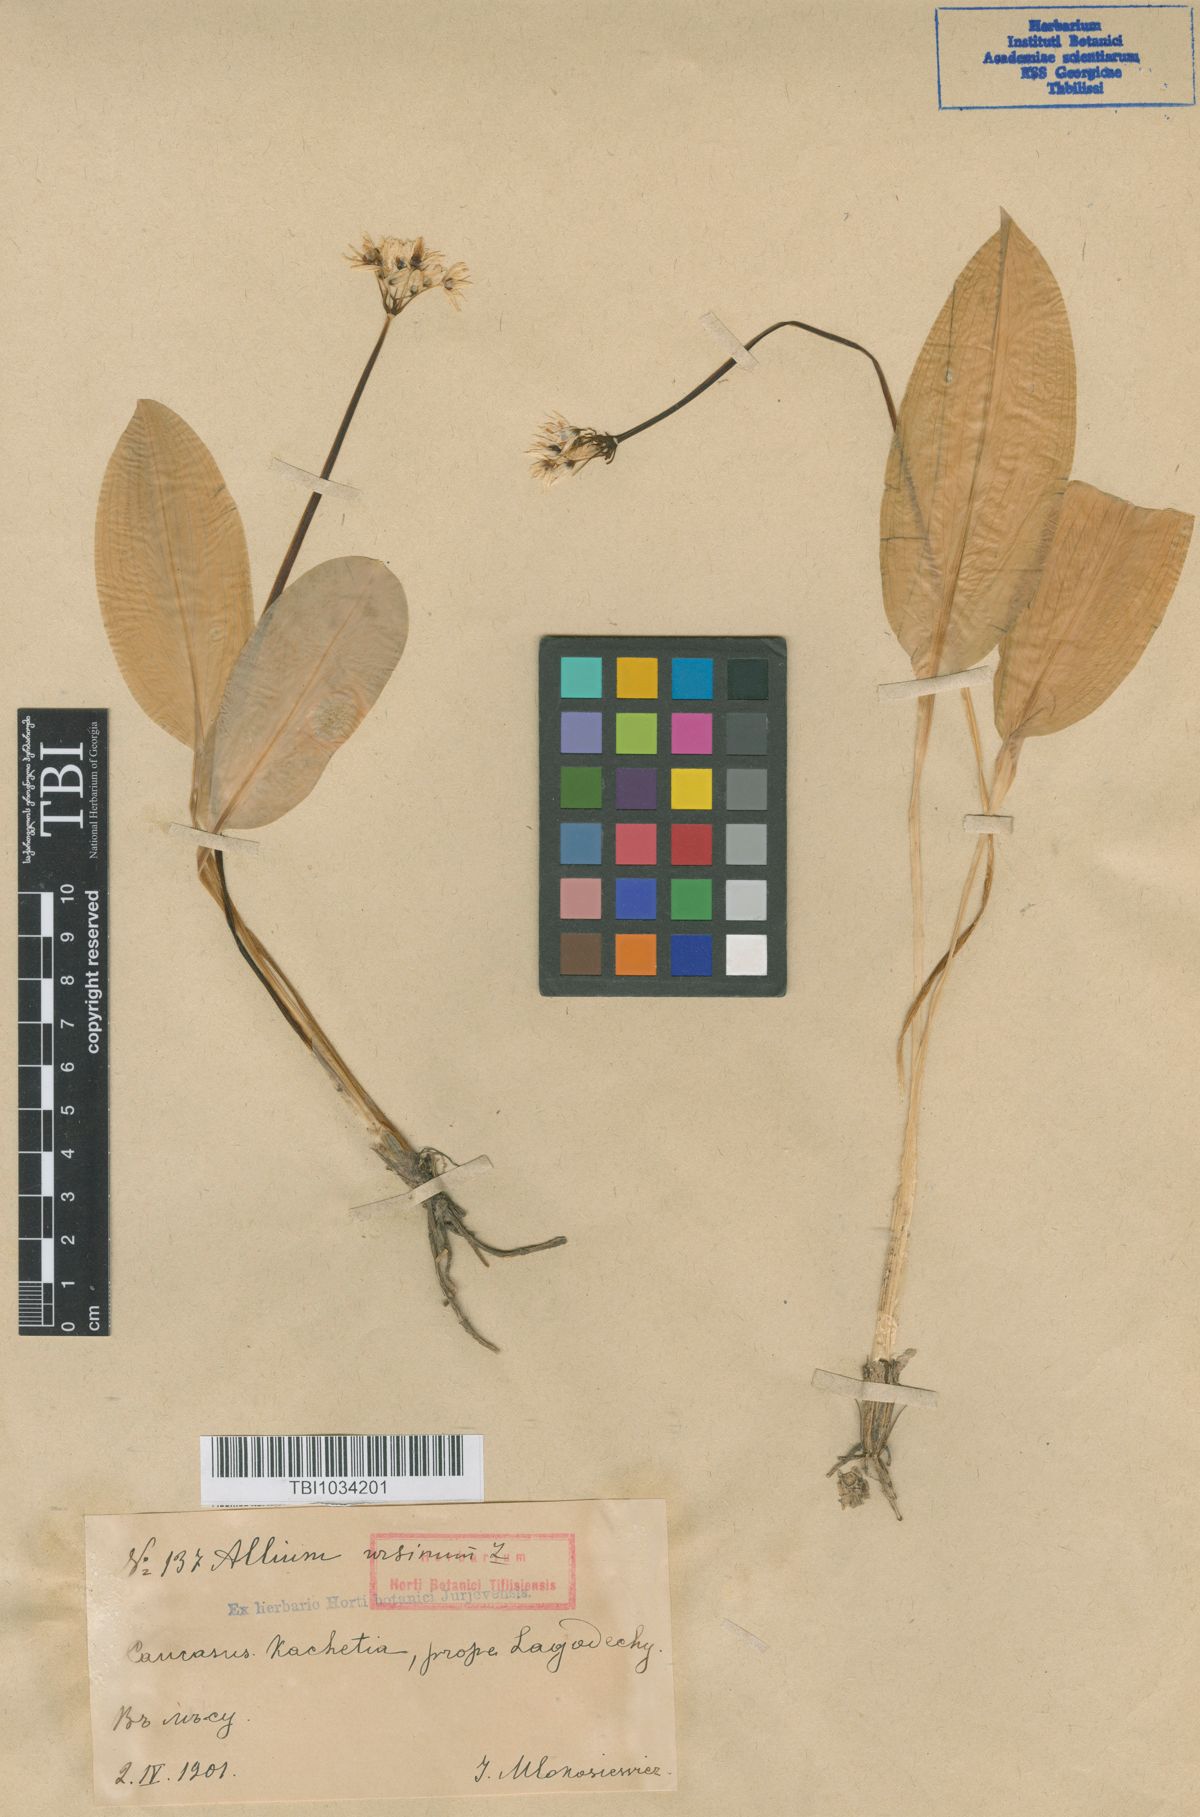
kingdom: Plantae
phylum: Tracheophyta
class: Liliopsida
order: Asparagales
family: Amaryllidaceae
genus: Allium
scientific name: Allium ursinum
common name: Ramsons
